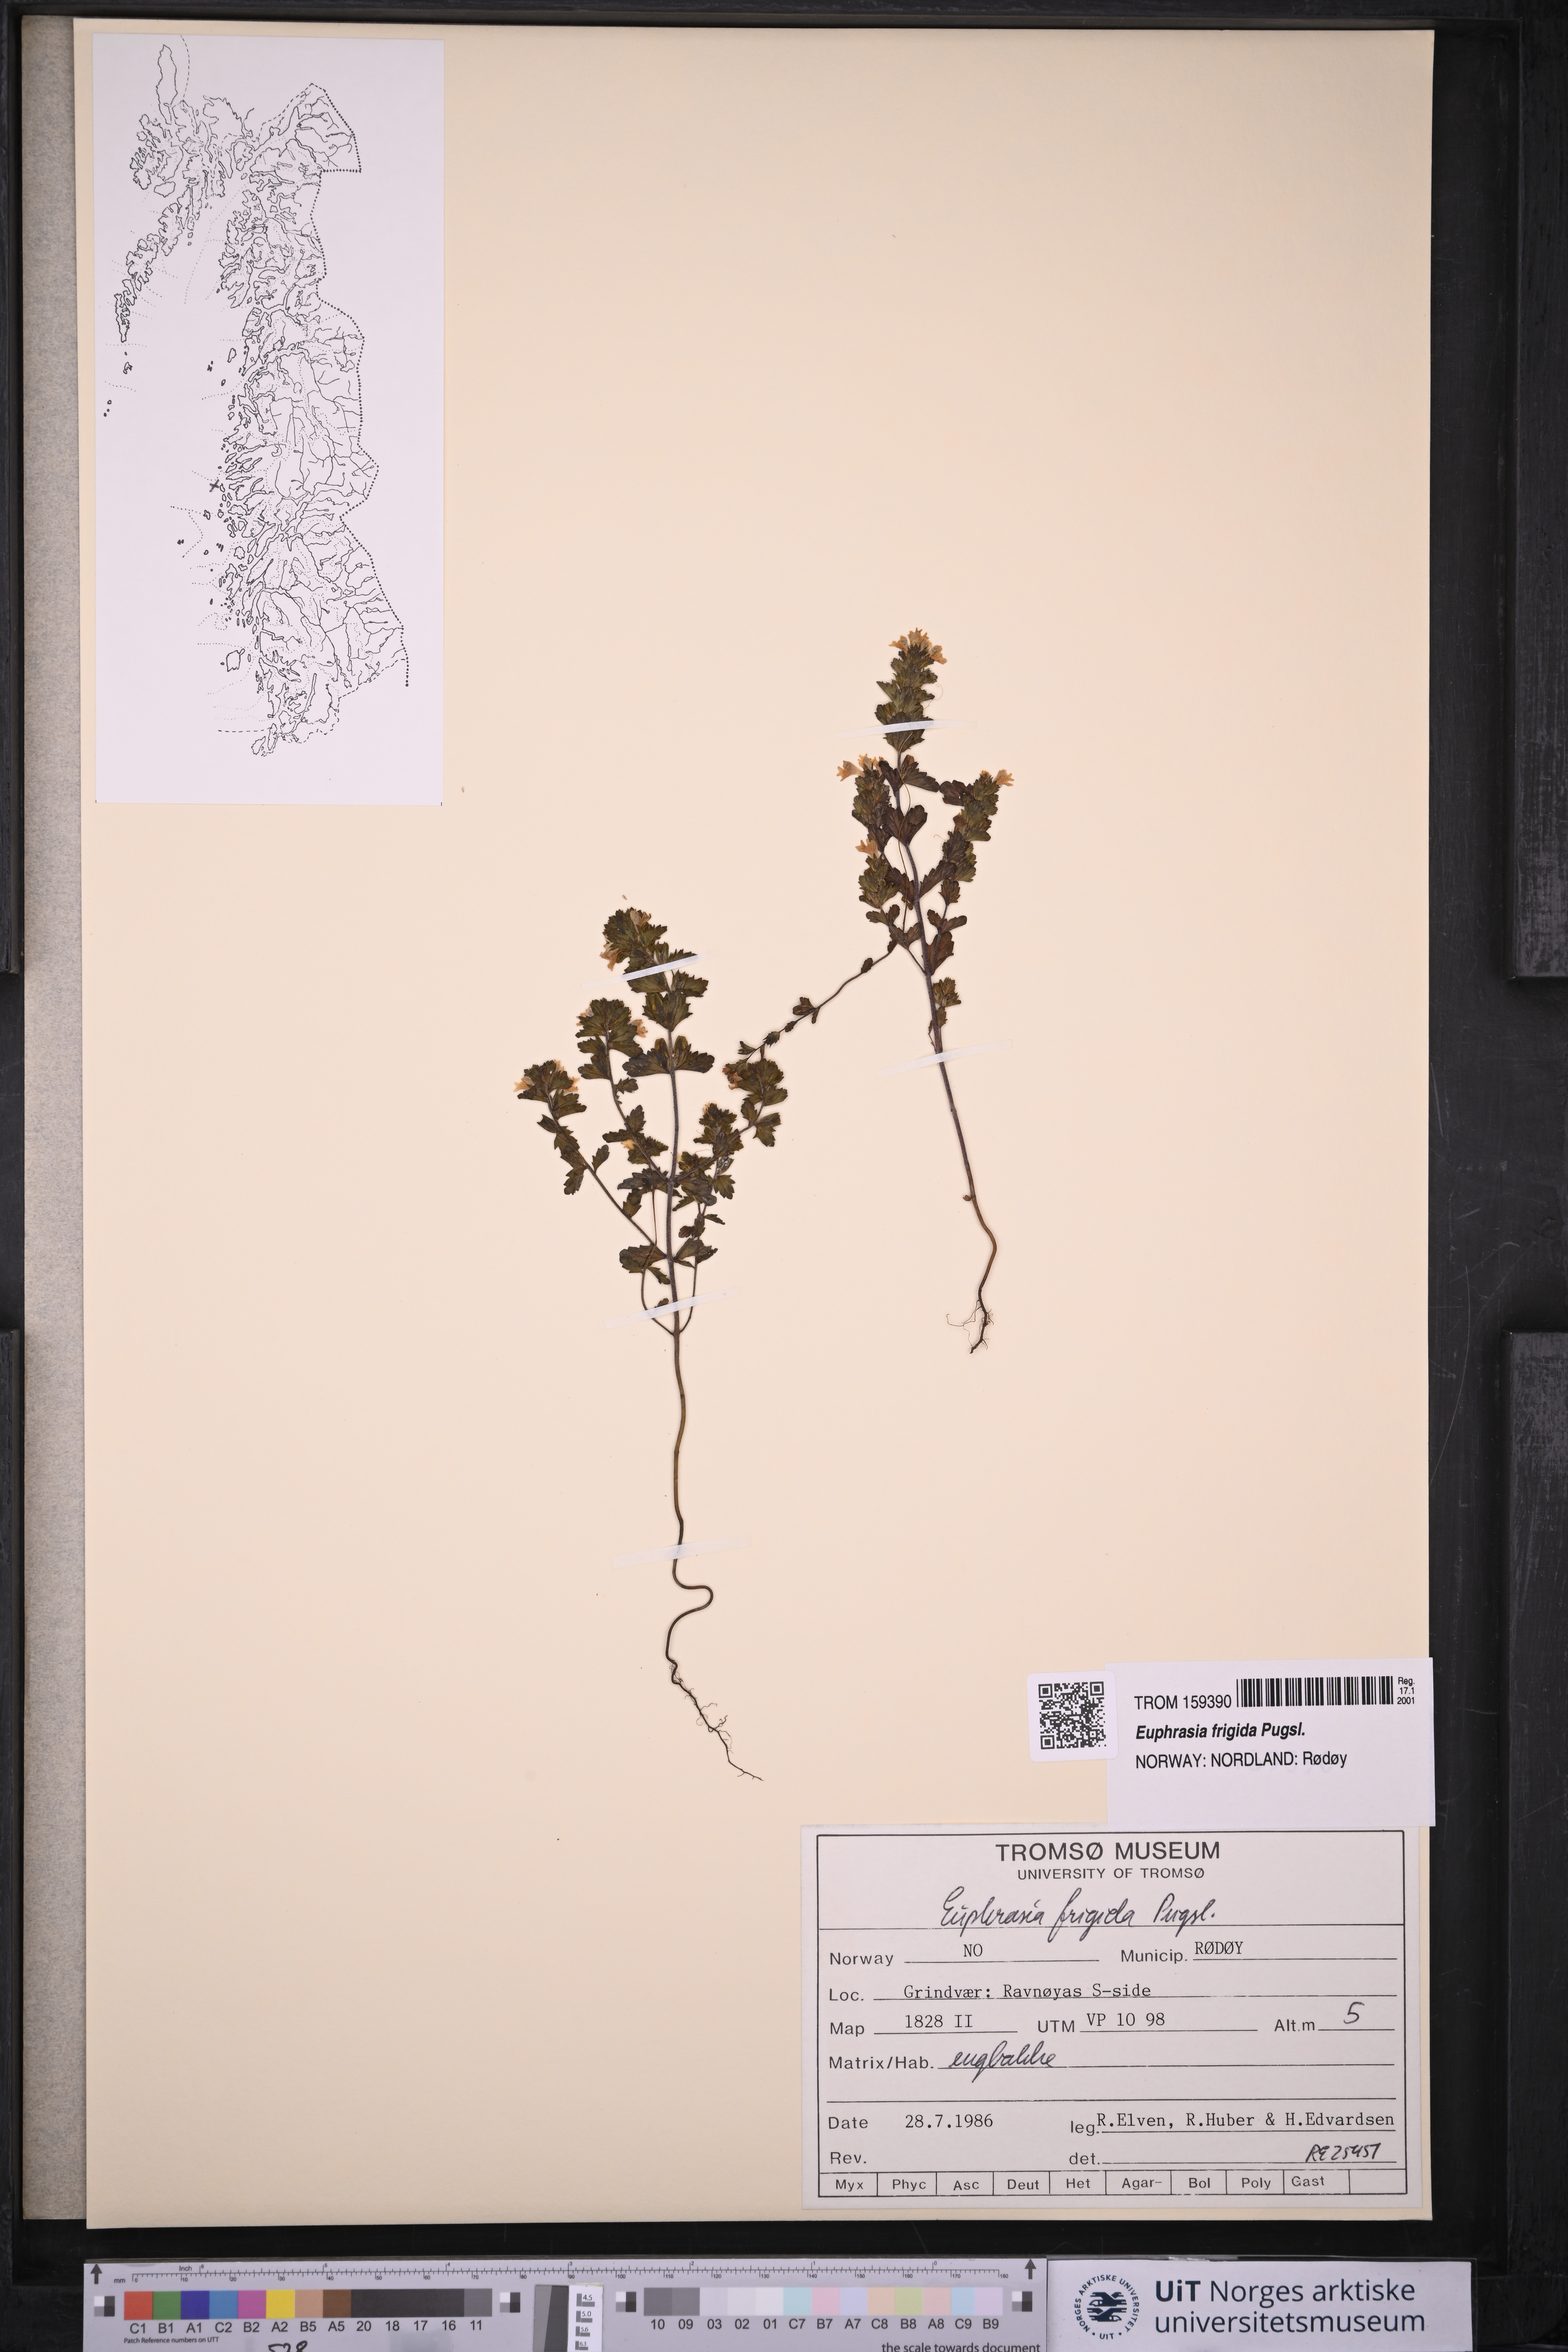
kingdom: Plantae
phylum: Tracheophyta
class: Magnoliopsida
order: Lamiales
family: Orobanchaceae
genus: Euphrasia
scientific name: Euphrasia frigida
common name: An eyebright
